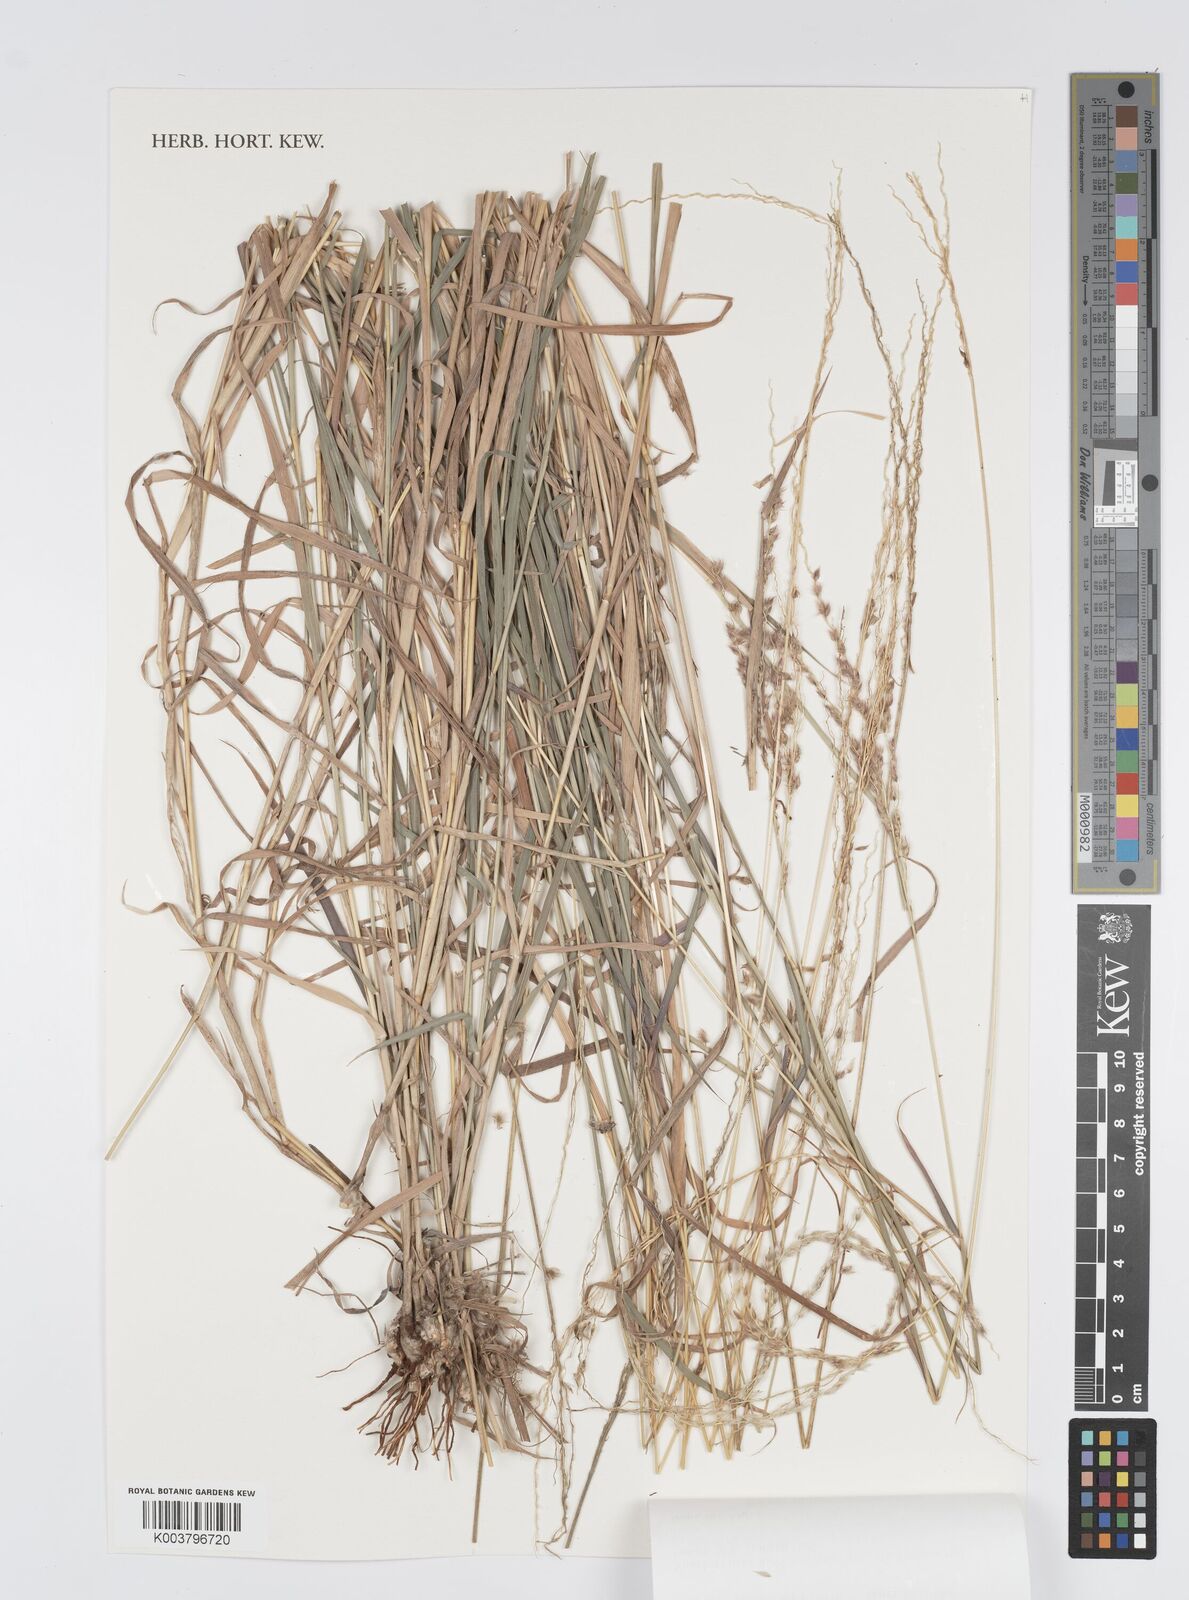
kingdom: Plantae
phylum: Tracheophyta
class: Liliopsida
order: Poales
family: Poaceae
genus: Digitaria
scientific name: Digitaria brownii
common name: Cotton grass
